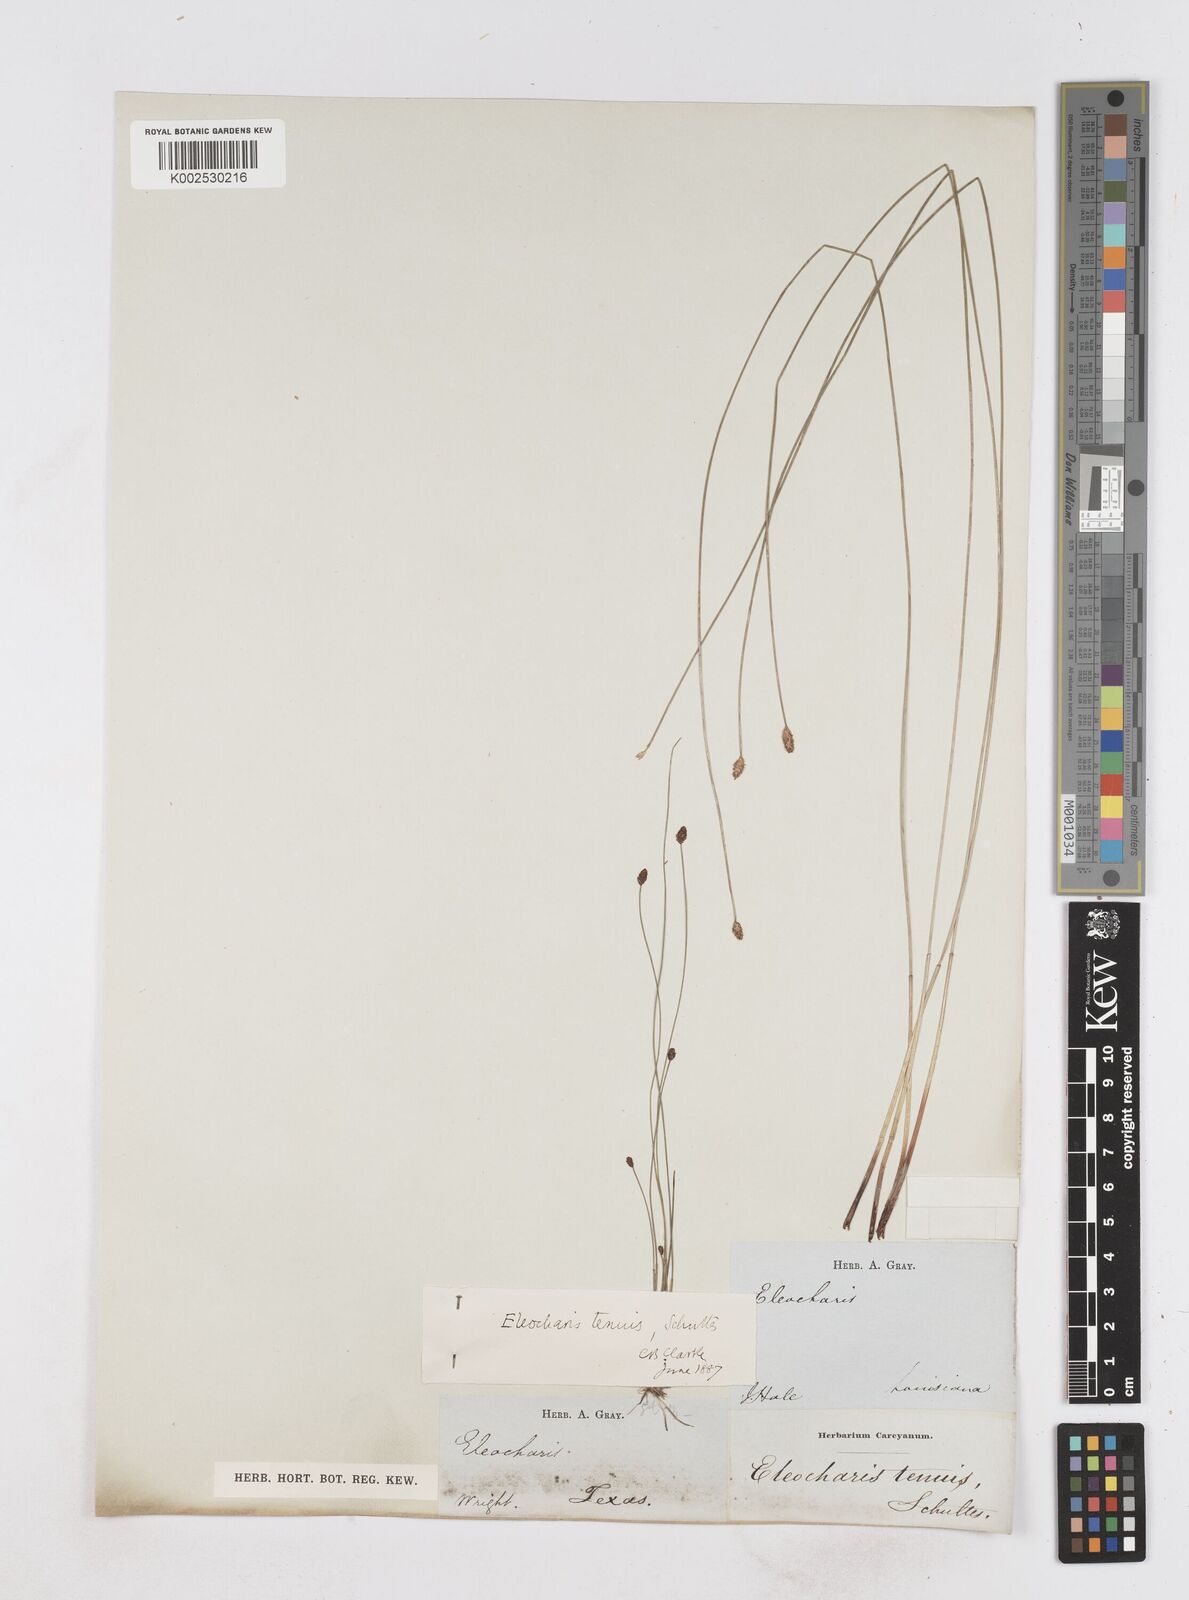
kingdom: Plantae
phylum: Tracheophyta
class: Liliopsida
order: Poales
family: Cyperaceae
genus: Eleocharis
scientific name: Eleocharis tenuis
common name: Dog's hair
